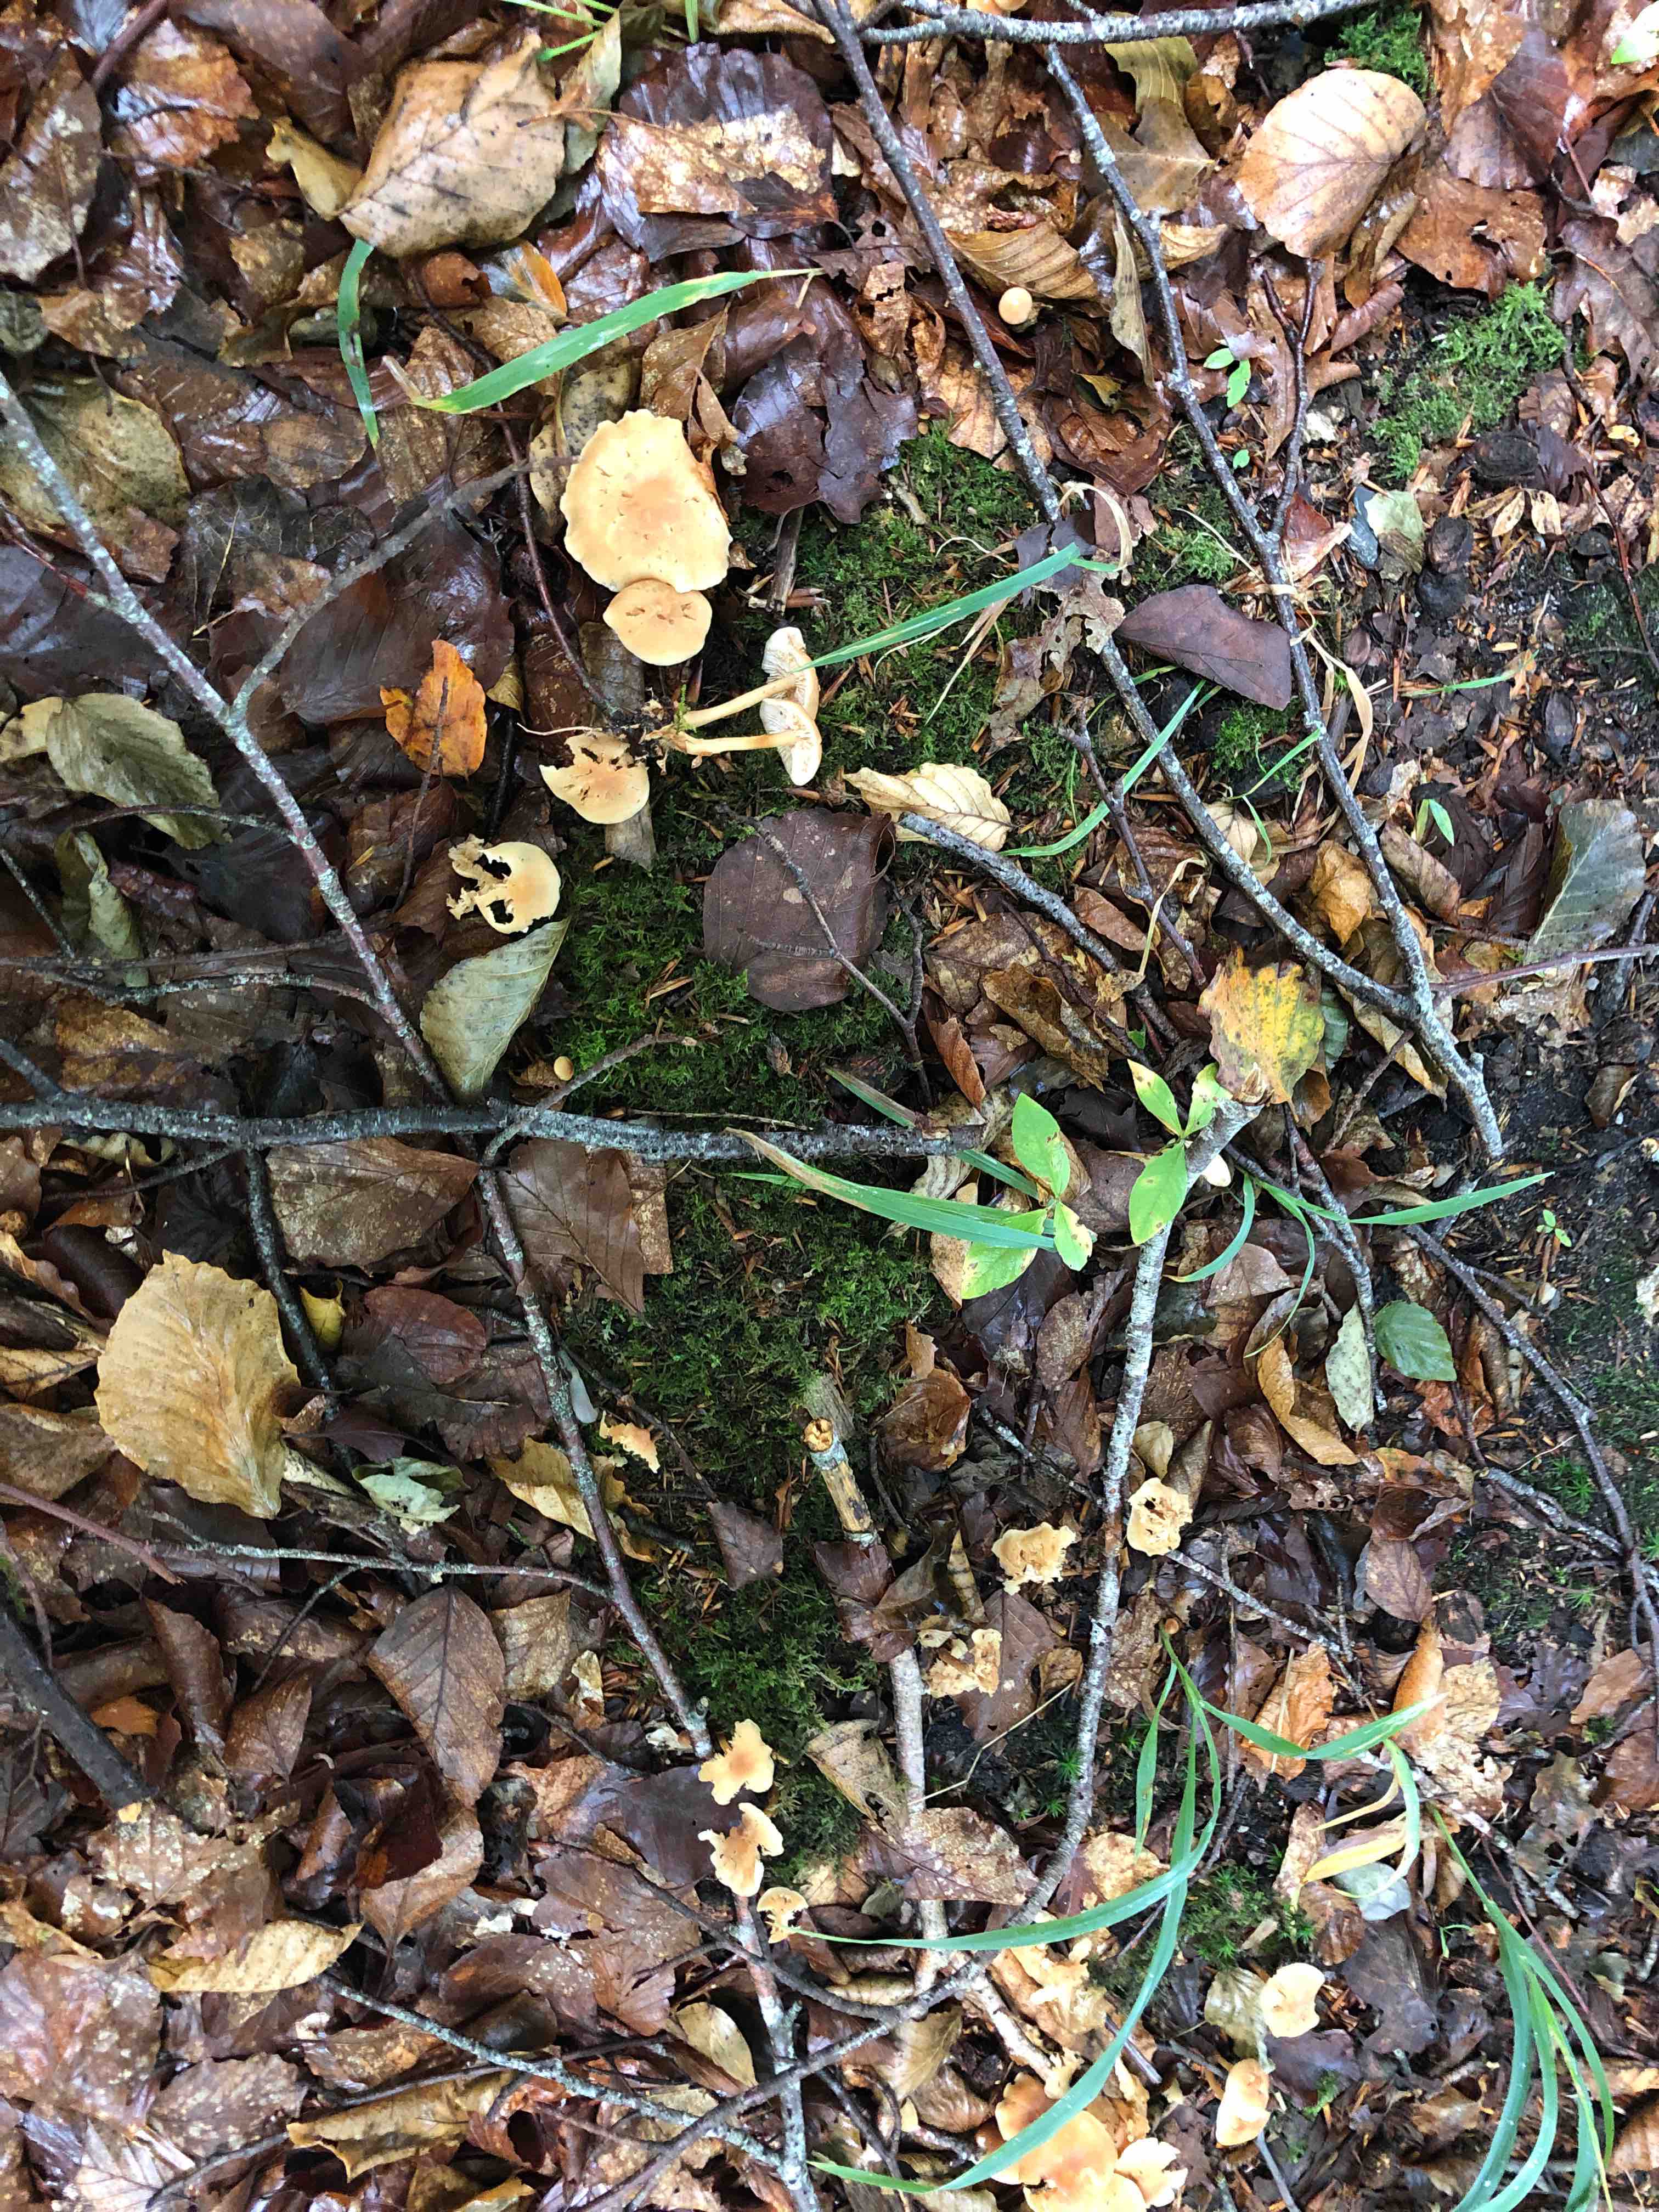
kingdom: Fungi
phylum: Basidiomycota
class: Agaricomycetes
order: Agaricales
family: Marasmiaceae
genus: Marasmius
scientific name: Marasmius oreades
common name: elledans-bruskhat
